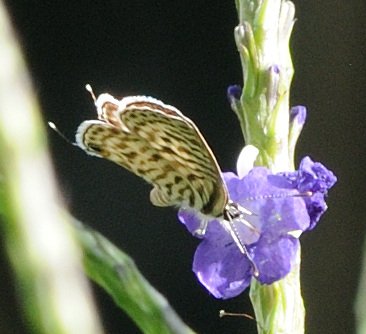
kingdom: Animalia
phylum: Arthropoda
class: Insecta
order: Lepidoptera
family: Lycaenidae
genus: Leptotes
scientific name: Leptotes pirithous
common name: Lang's Short-tailed Blue
